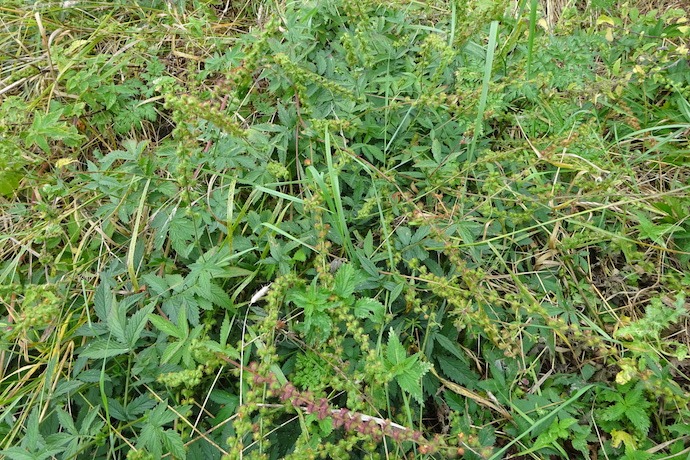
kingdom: Plantae
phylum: Tracheophyta
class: Magnoliopsida
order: Rosales
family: Rosaceae
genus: Agrimonia
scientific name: Agrimonia procera
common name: Vellugtende agermåne
